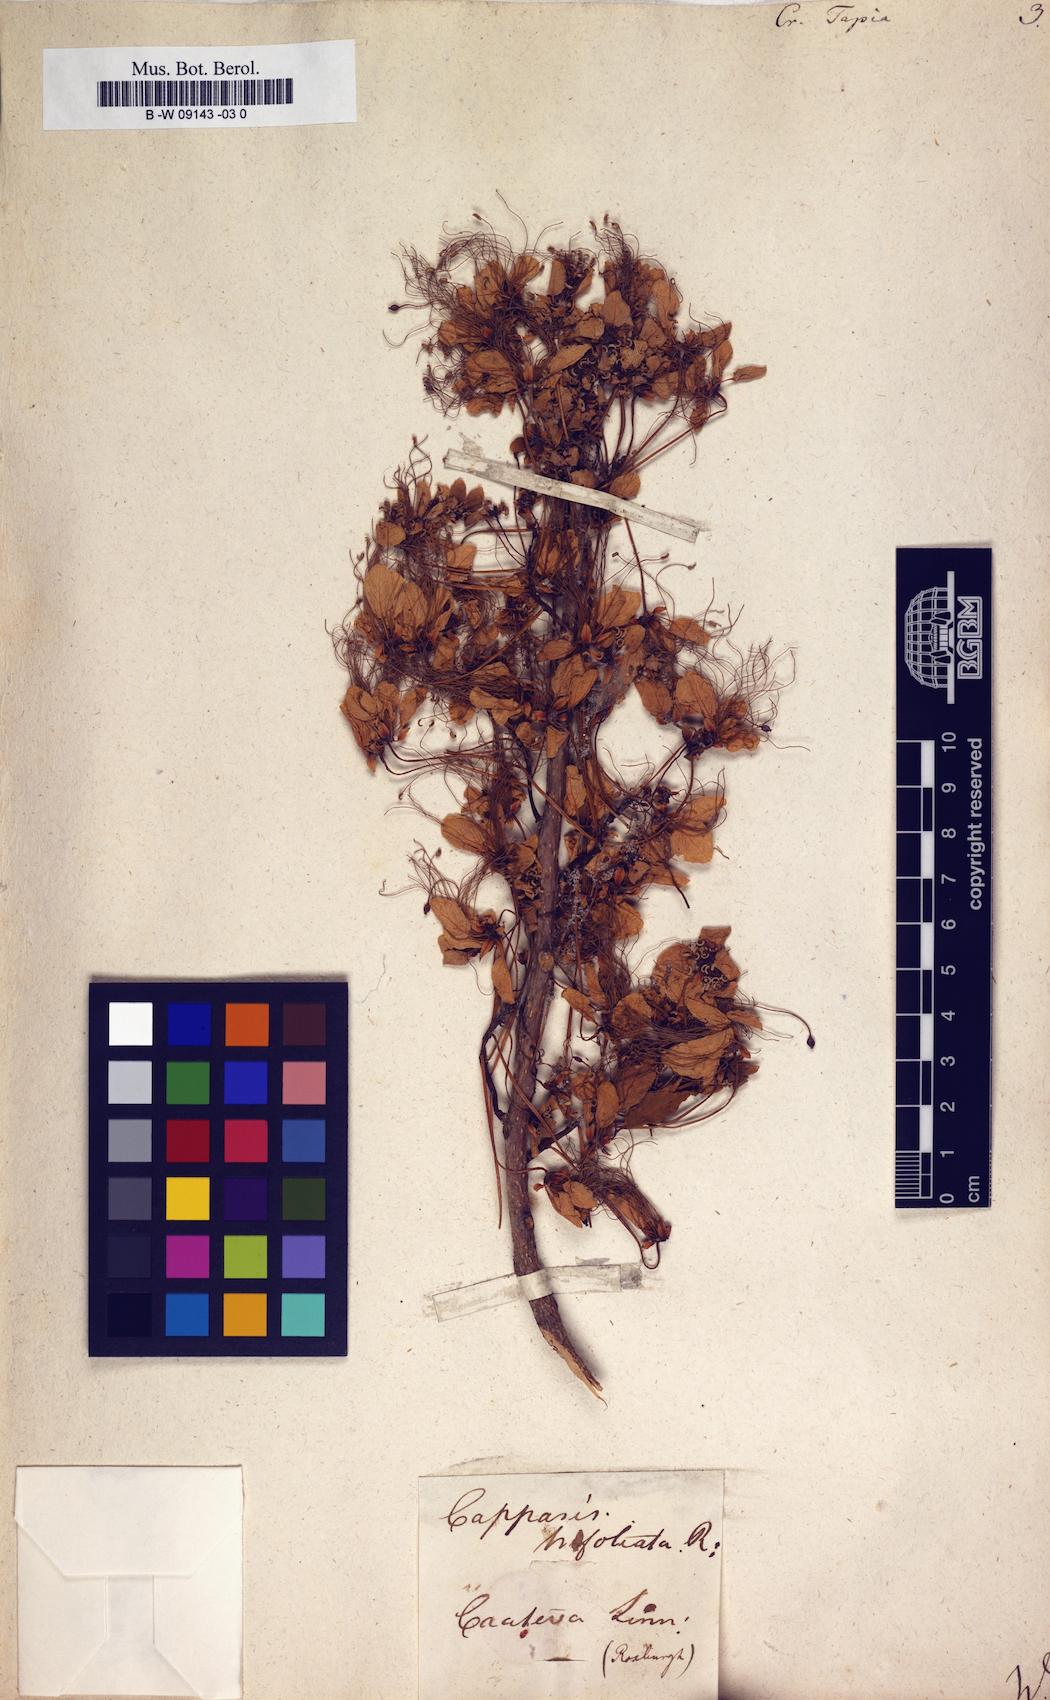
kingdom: Plantae
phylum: Tracheophyta
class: Magnoliopsida
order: Brassicales
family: Capparaceae
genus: Crateva
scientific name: Crateva tapia
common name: Garlic-pear
